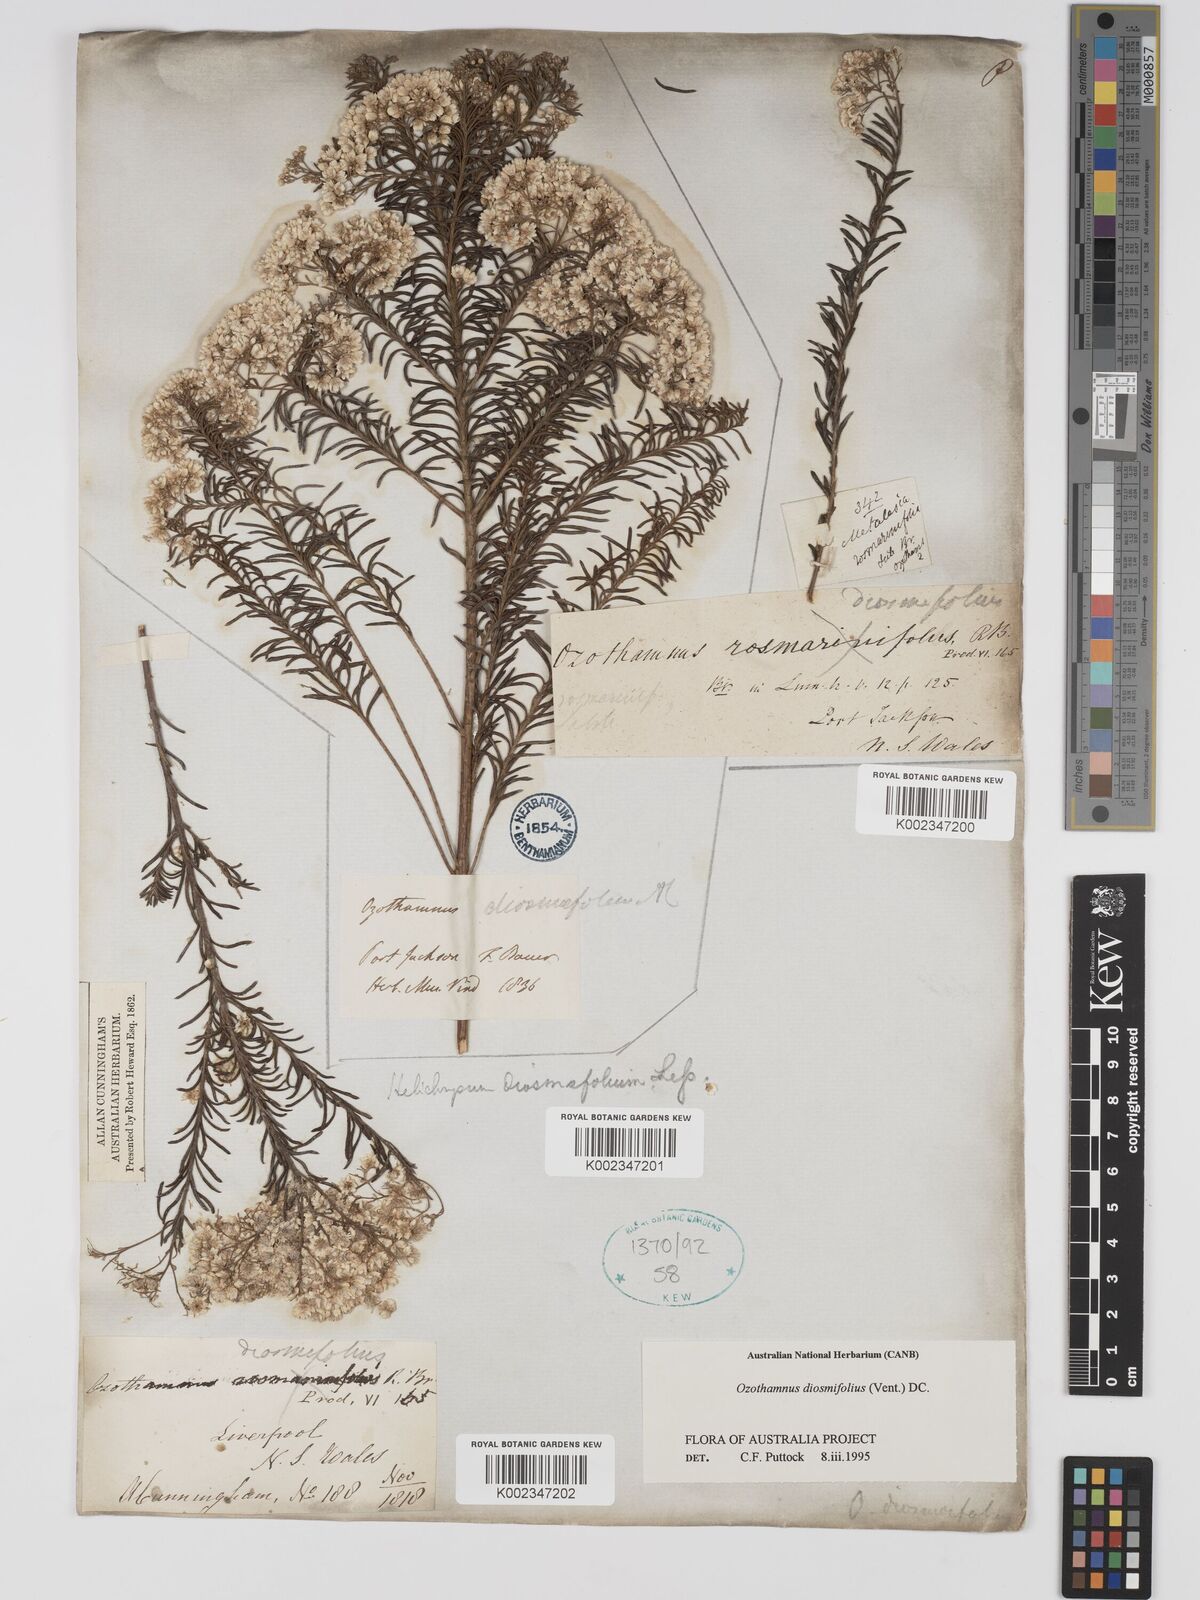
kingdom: Plantae
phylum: Tracheophyta
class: Magnoliopsida
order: Asterales
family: Asteraceae
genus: Ozothamnus
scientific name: Ozothamnus diosmifolius
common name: White-dogwood
